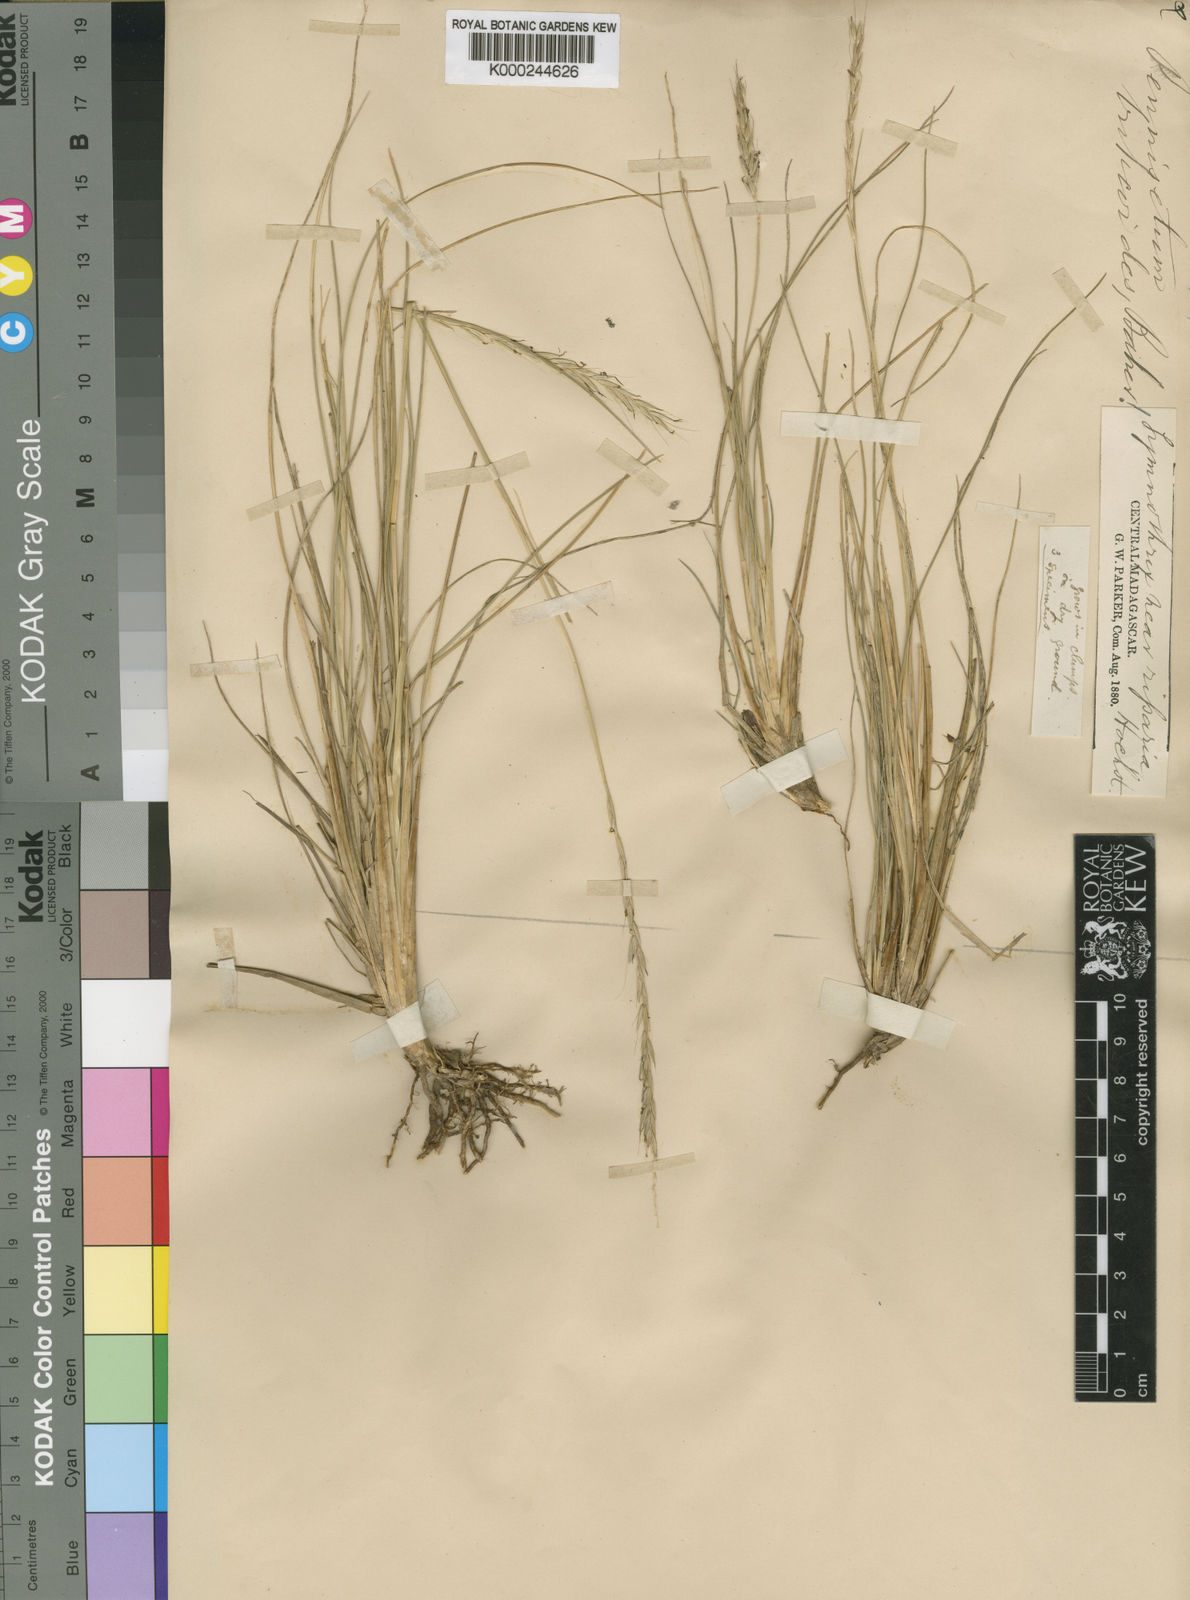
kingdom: Plantae
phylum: Tracheophyta
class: Liliopsida
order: Poales
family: Poaceae
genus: Cenchrus
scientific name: Cenchrus hohenackeri
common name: Moya grass
